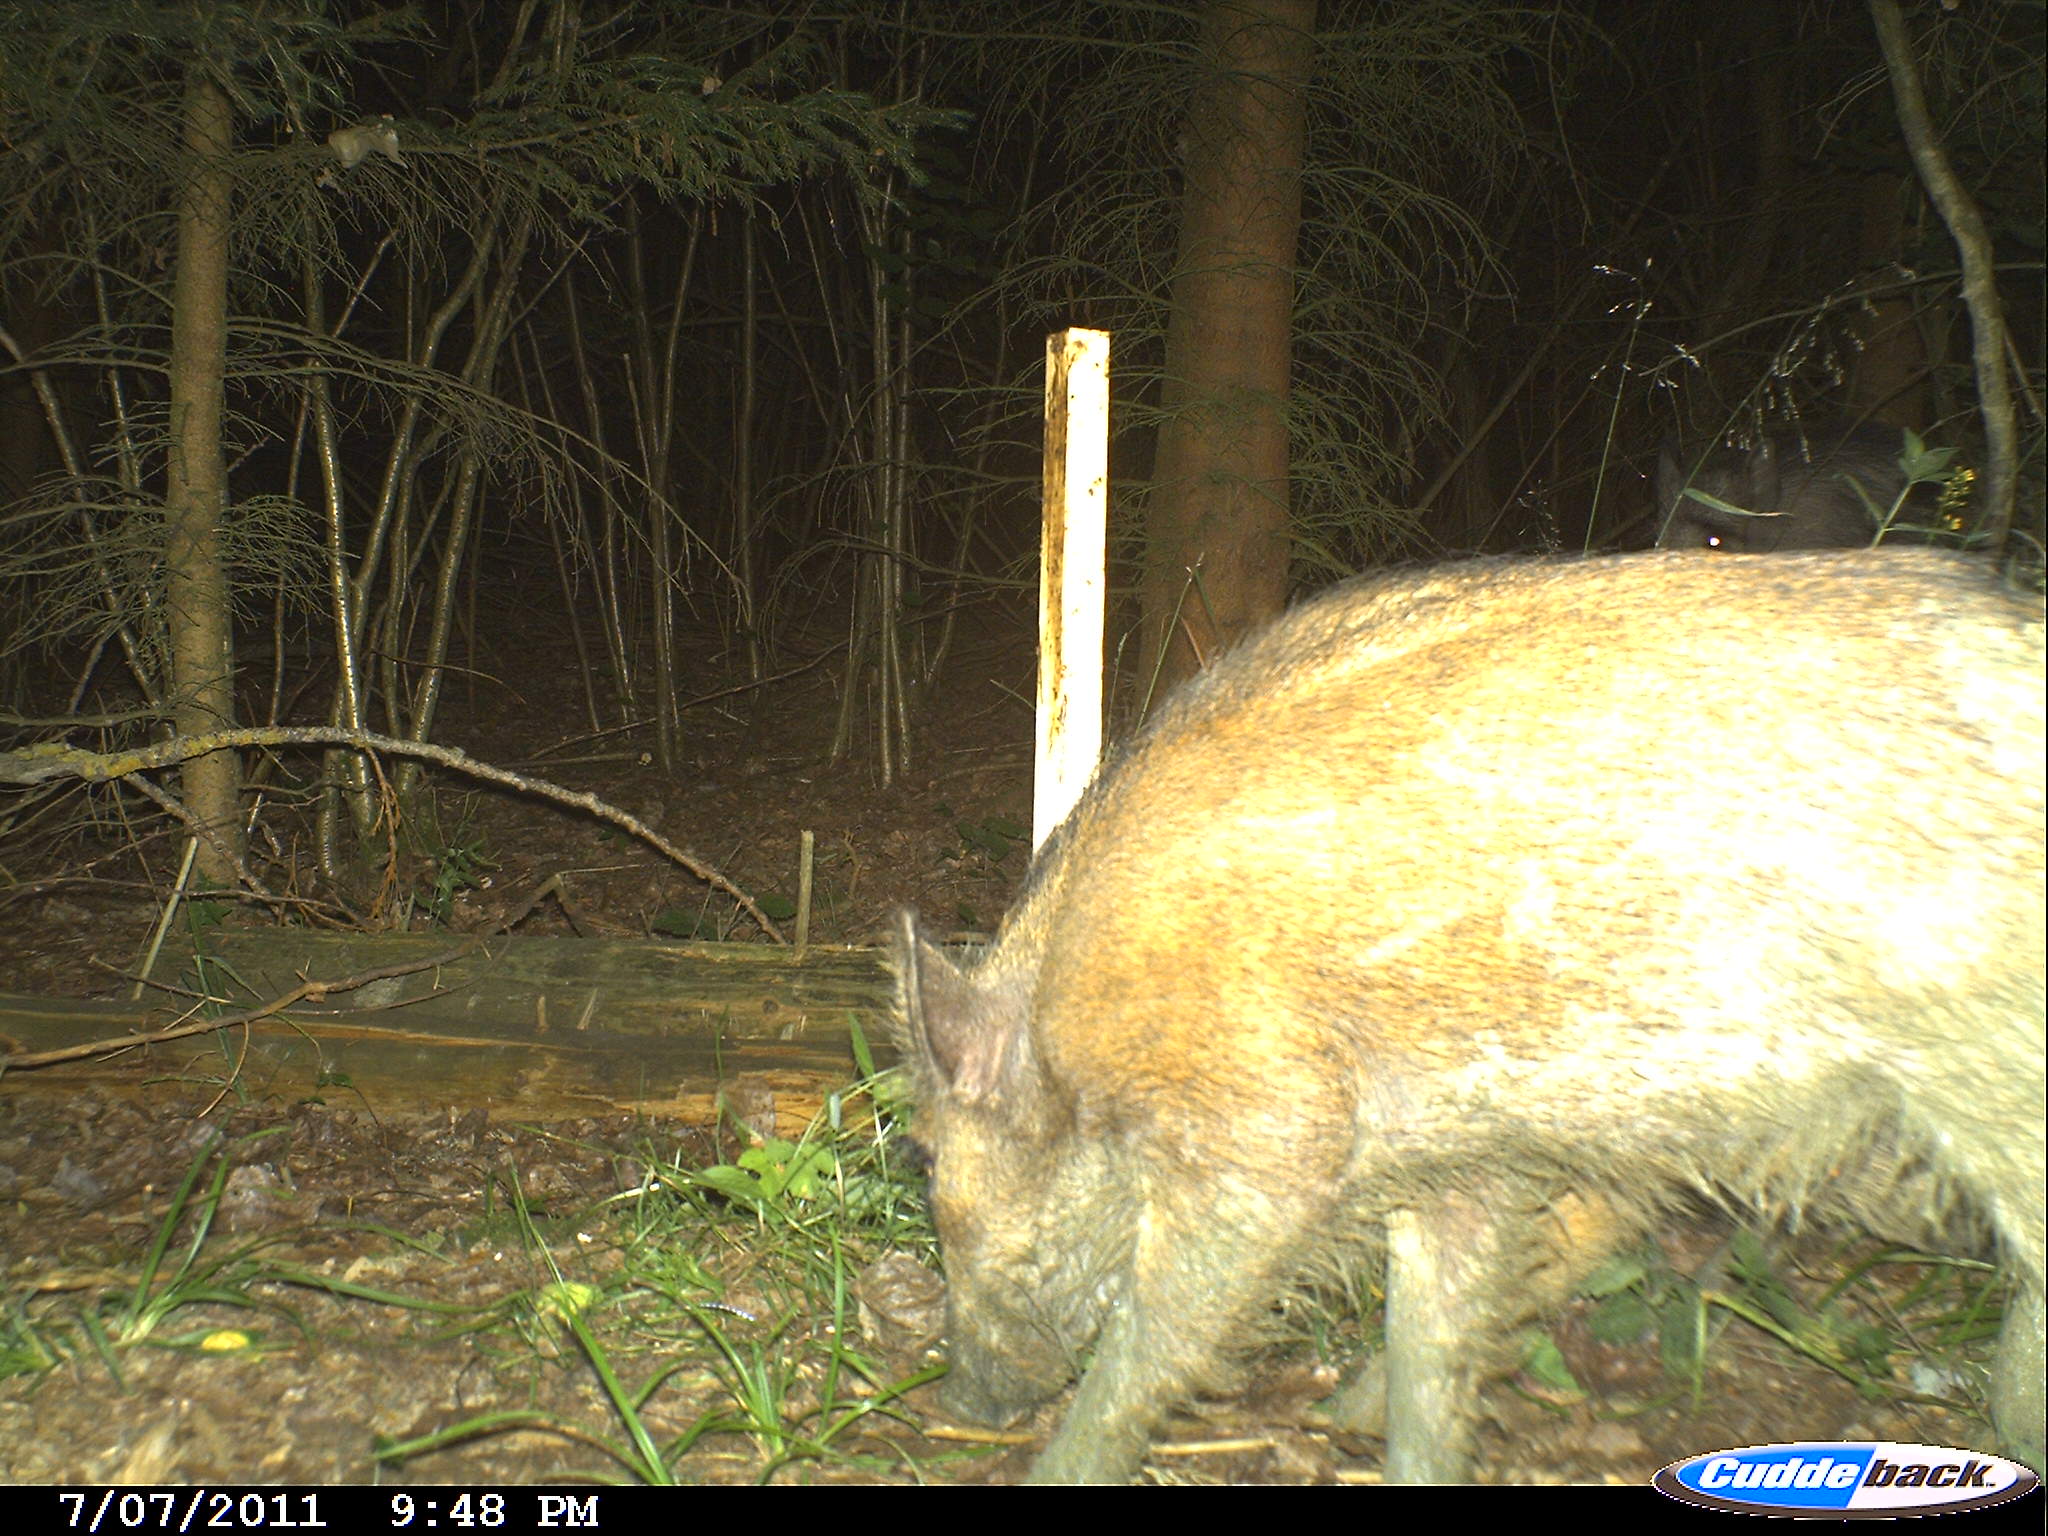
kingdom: Animalia
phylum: Chordata
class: Mammalia
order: Artiodactyla
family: Suidae
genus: Sus
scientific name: Sus scrofa
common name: Wild boar
